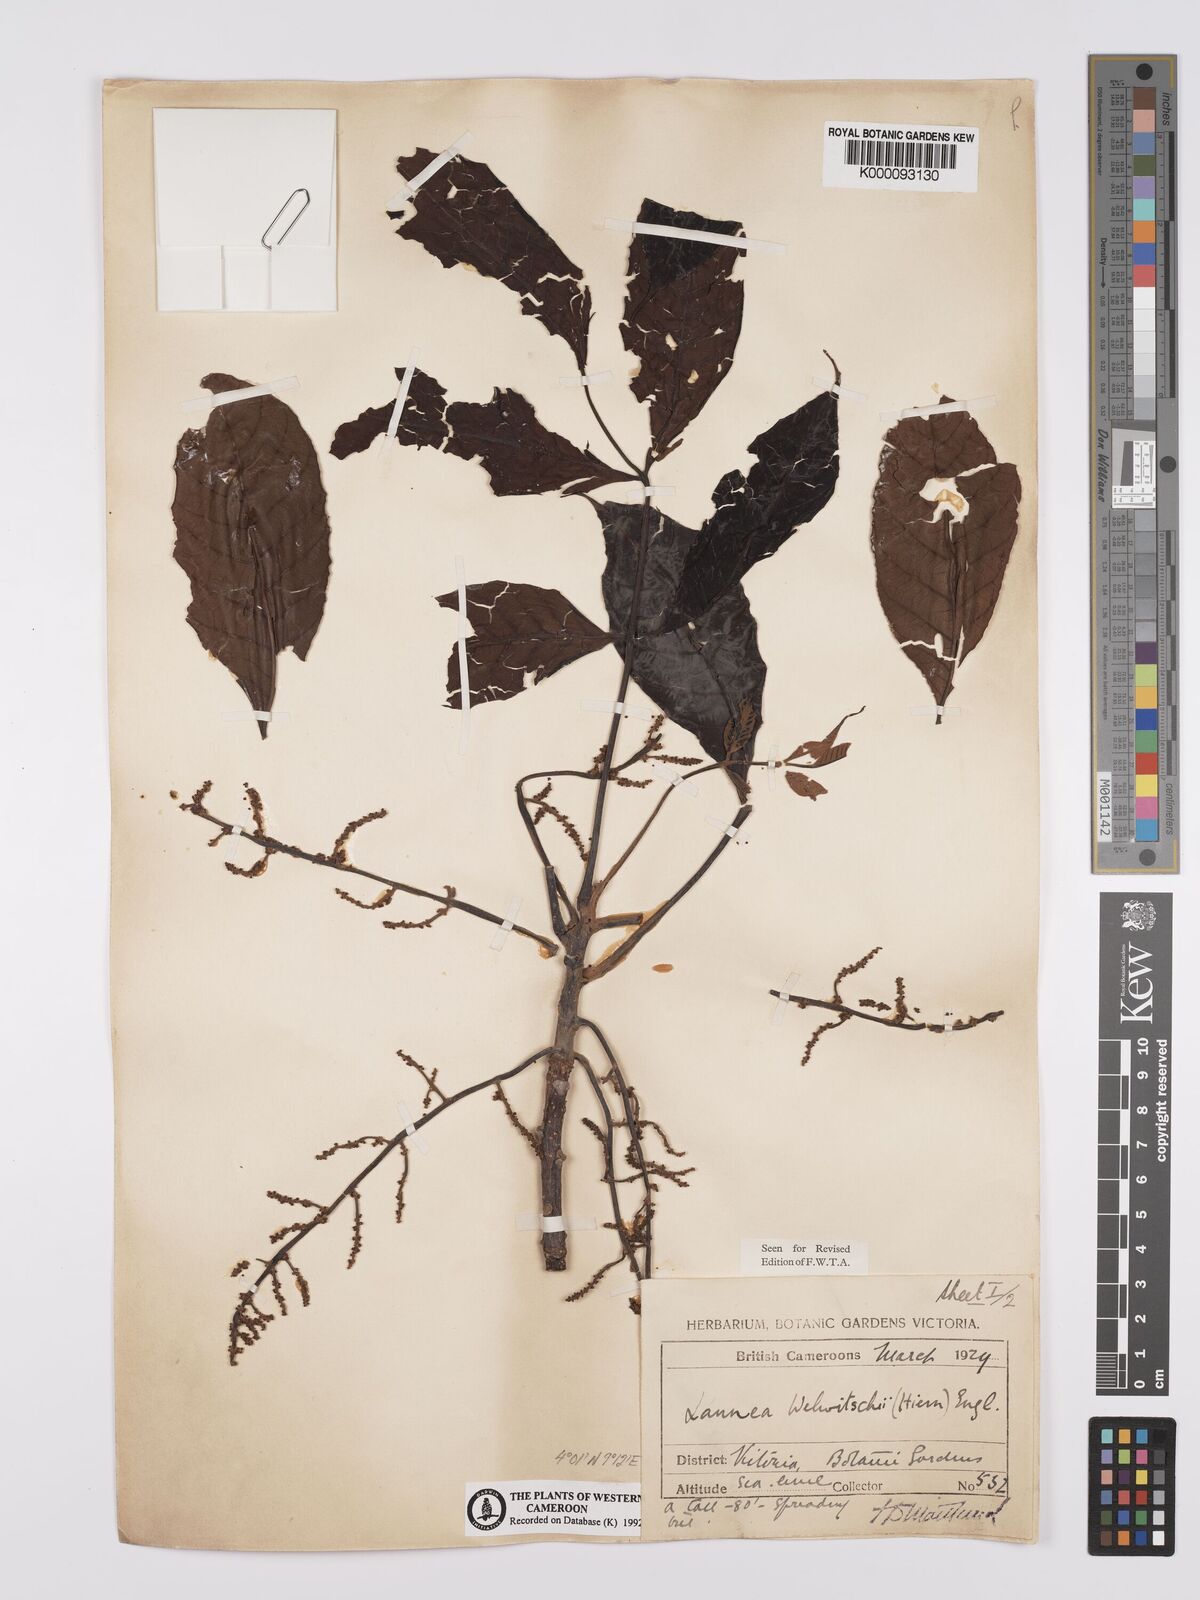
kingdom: Plantae
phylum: Tracheophyta
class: Magnoliopsida
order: Sapindales
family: Anacardiaceae
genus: Lannea
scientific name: Lannea welwitschii
